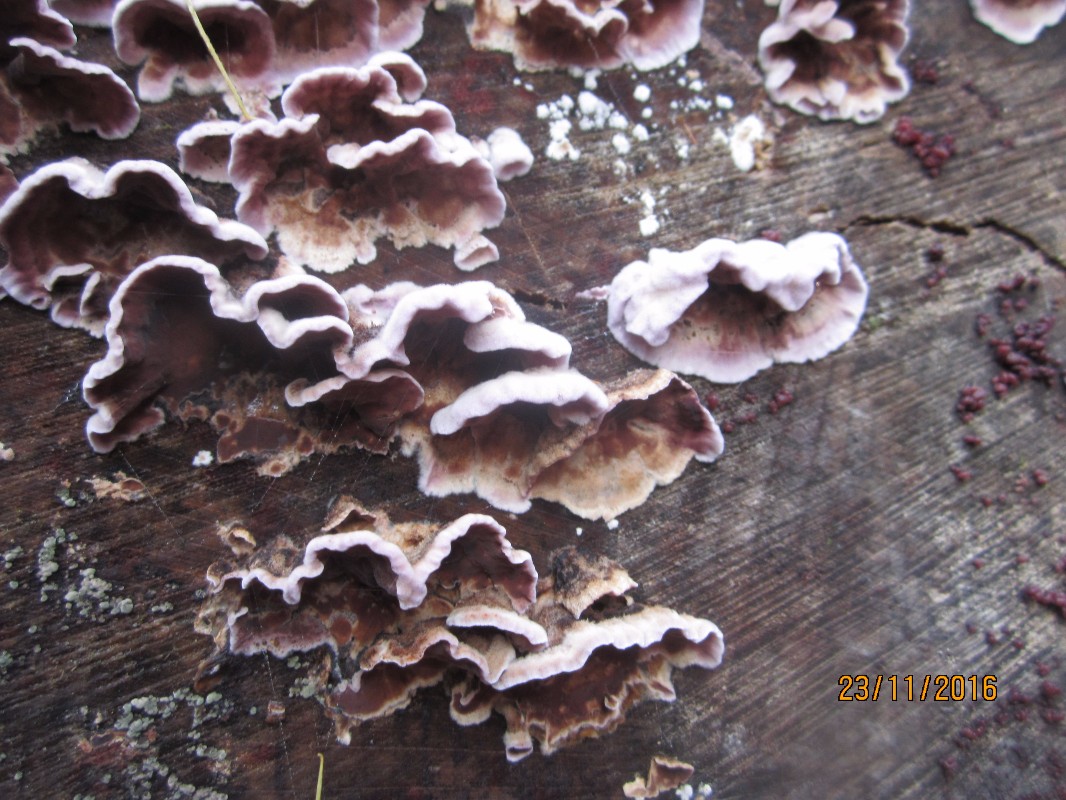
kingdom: Fungi
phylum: Basidiomycota
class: Agaricomycetes
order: Agaricales
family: Cyphellaceae
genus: Chondrostereum
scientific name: Chondrostereum purpureum
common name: purpurlædersvamp
